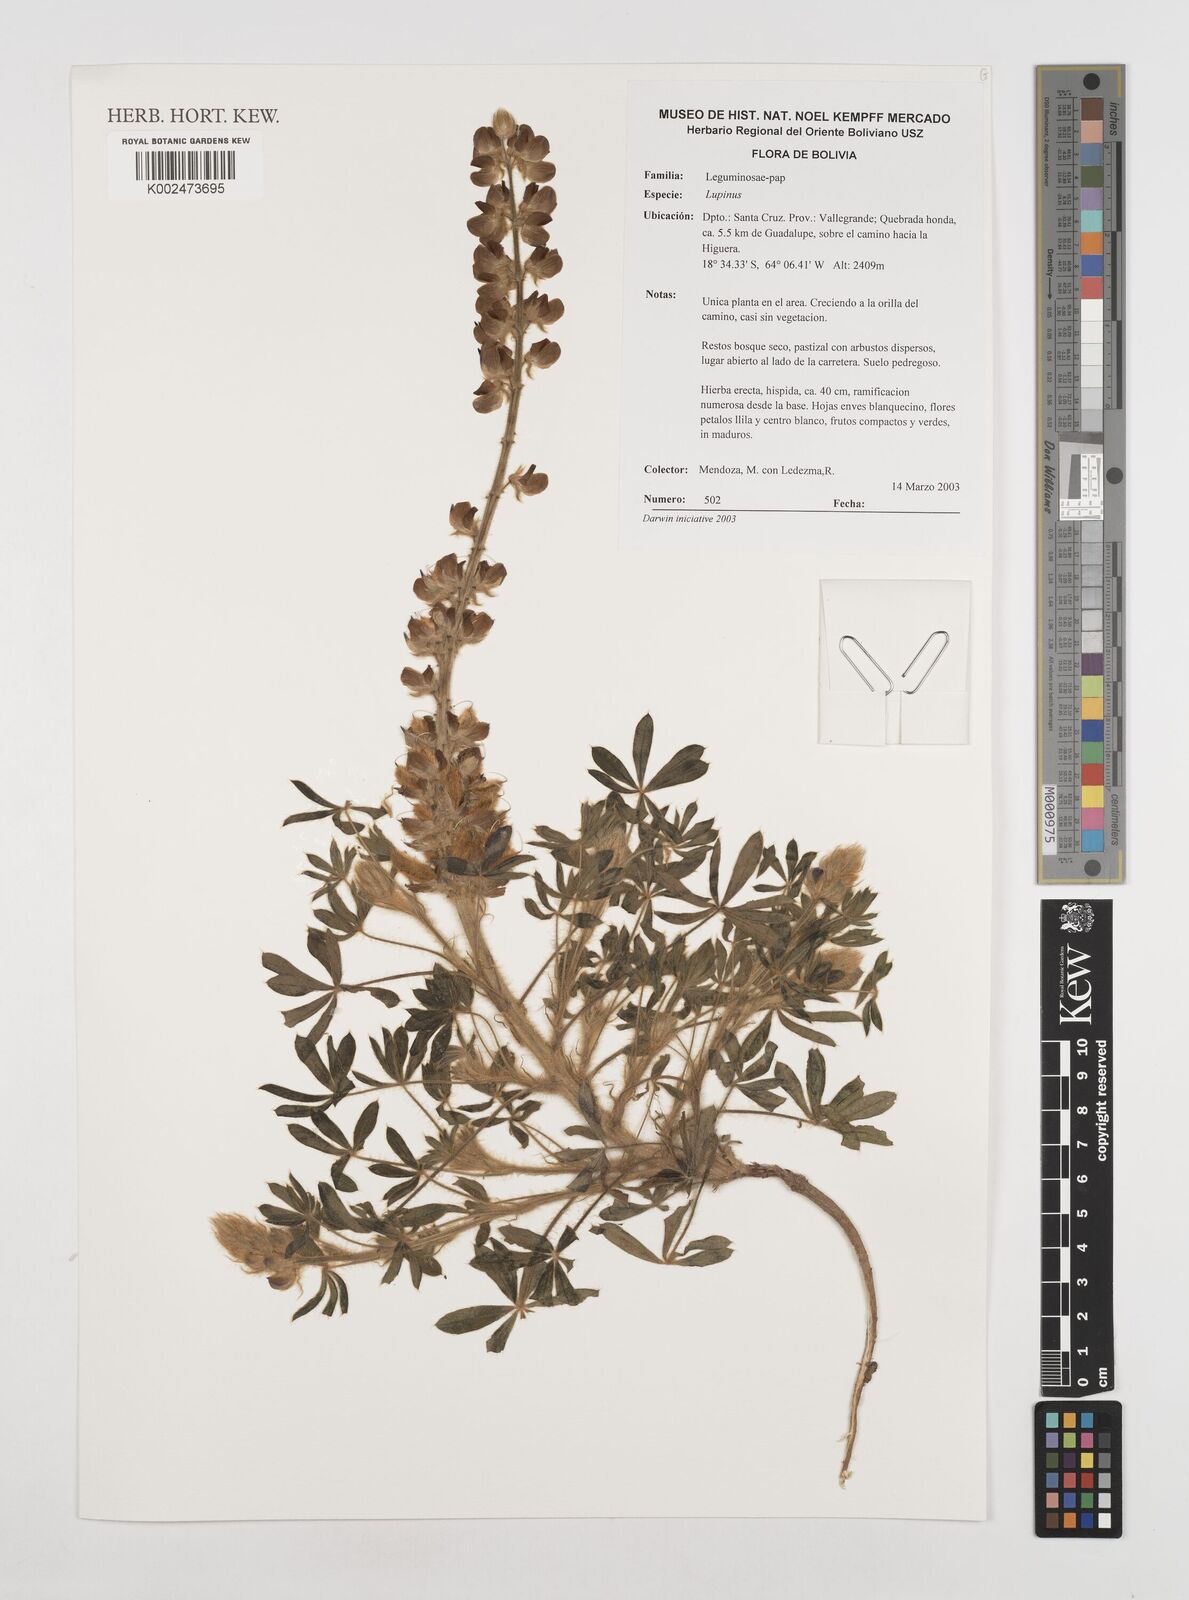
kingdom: Plantae
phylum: Tracheophyta
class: Magnoliopsida
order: Fabales
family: Fabaceae
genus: Lupinus
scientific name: Lupinus
